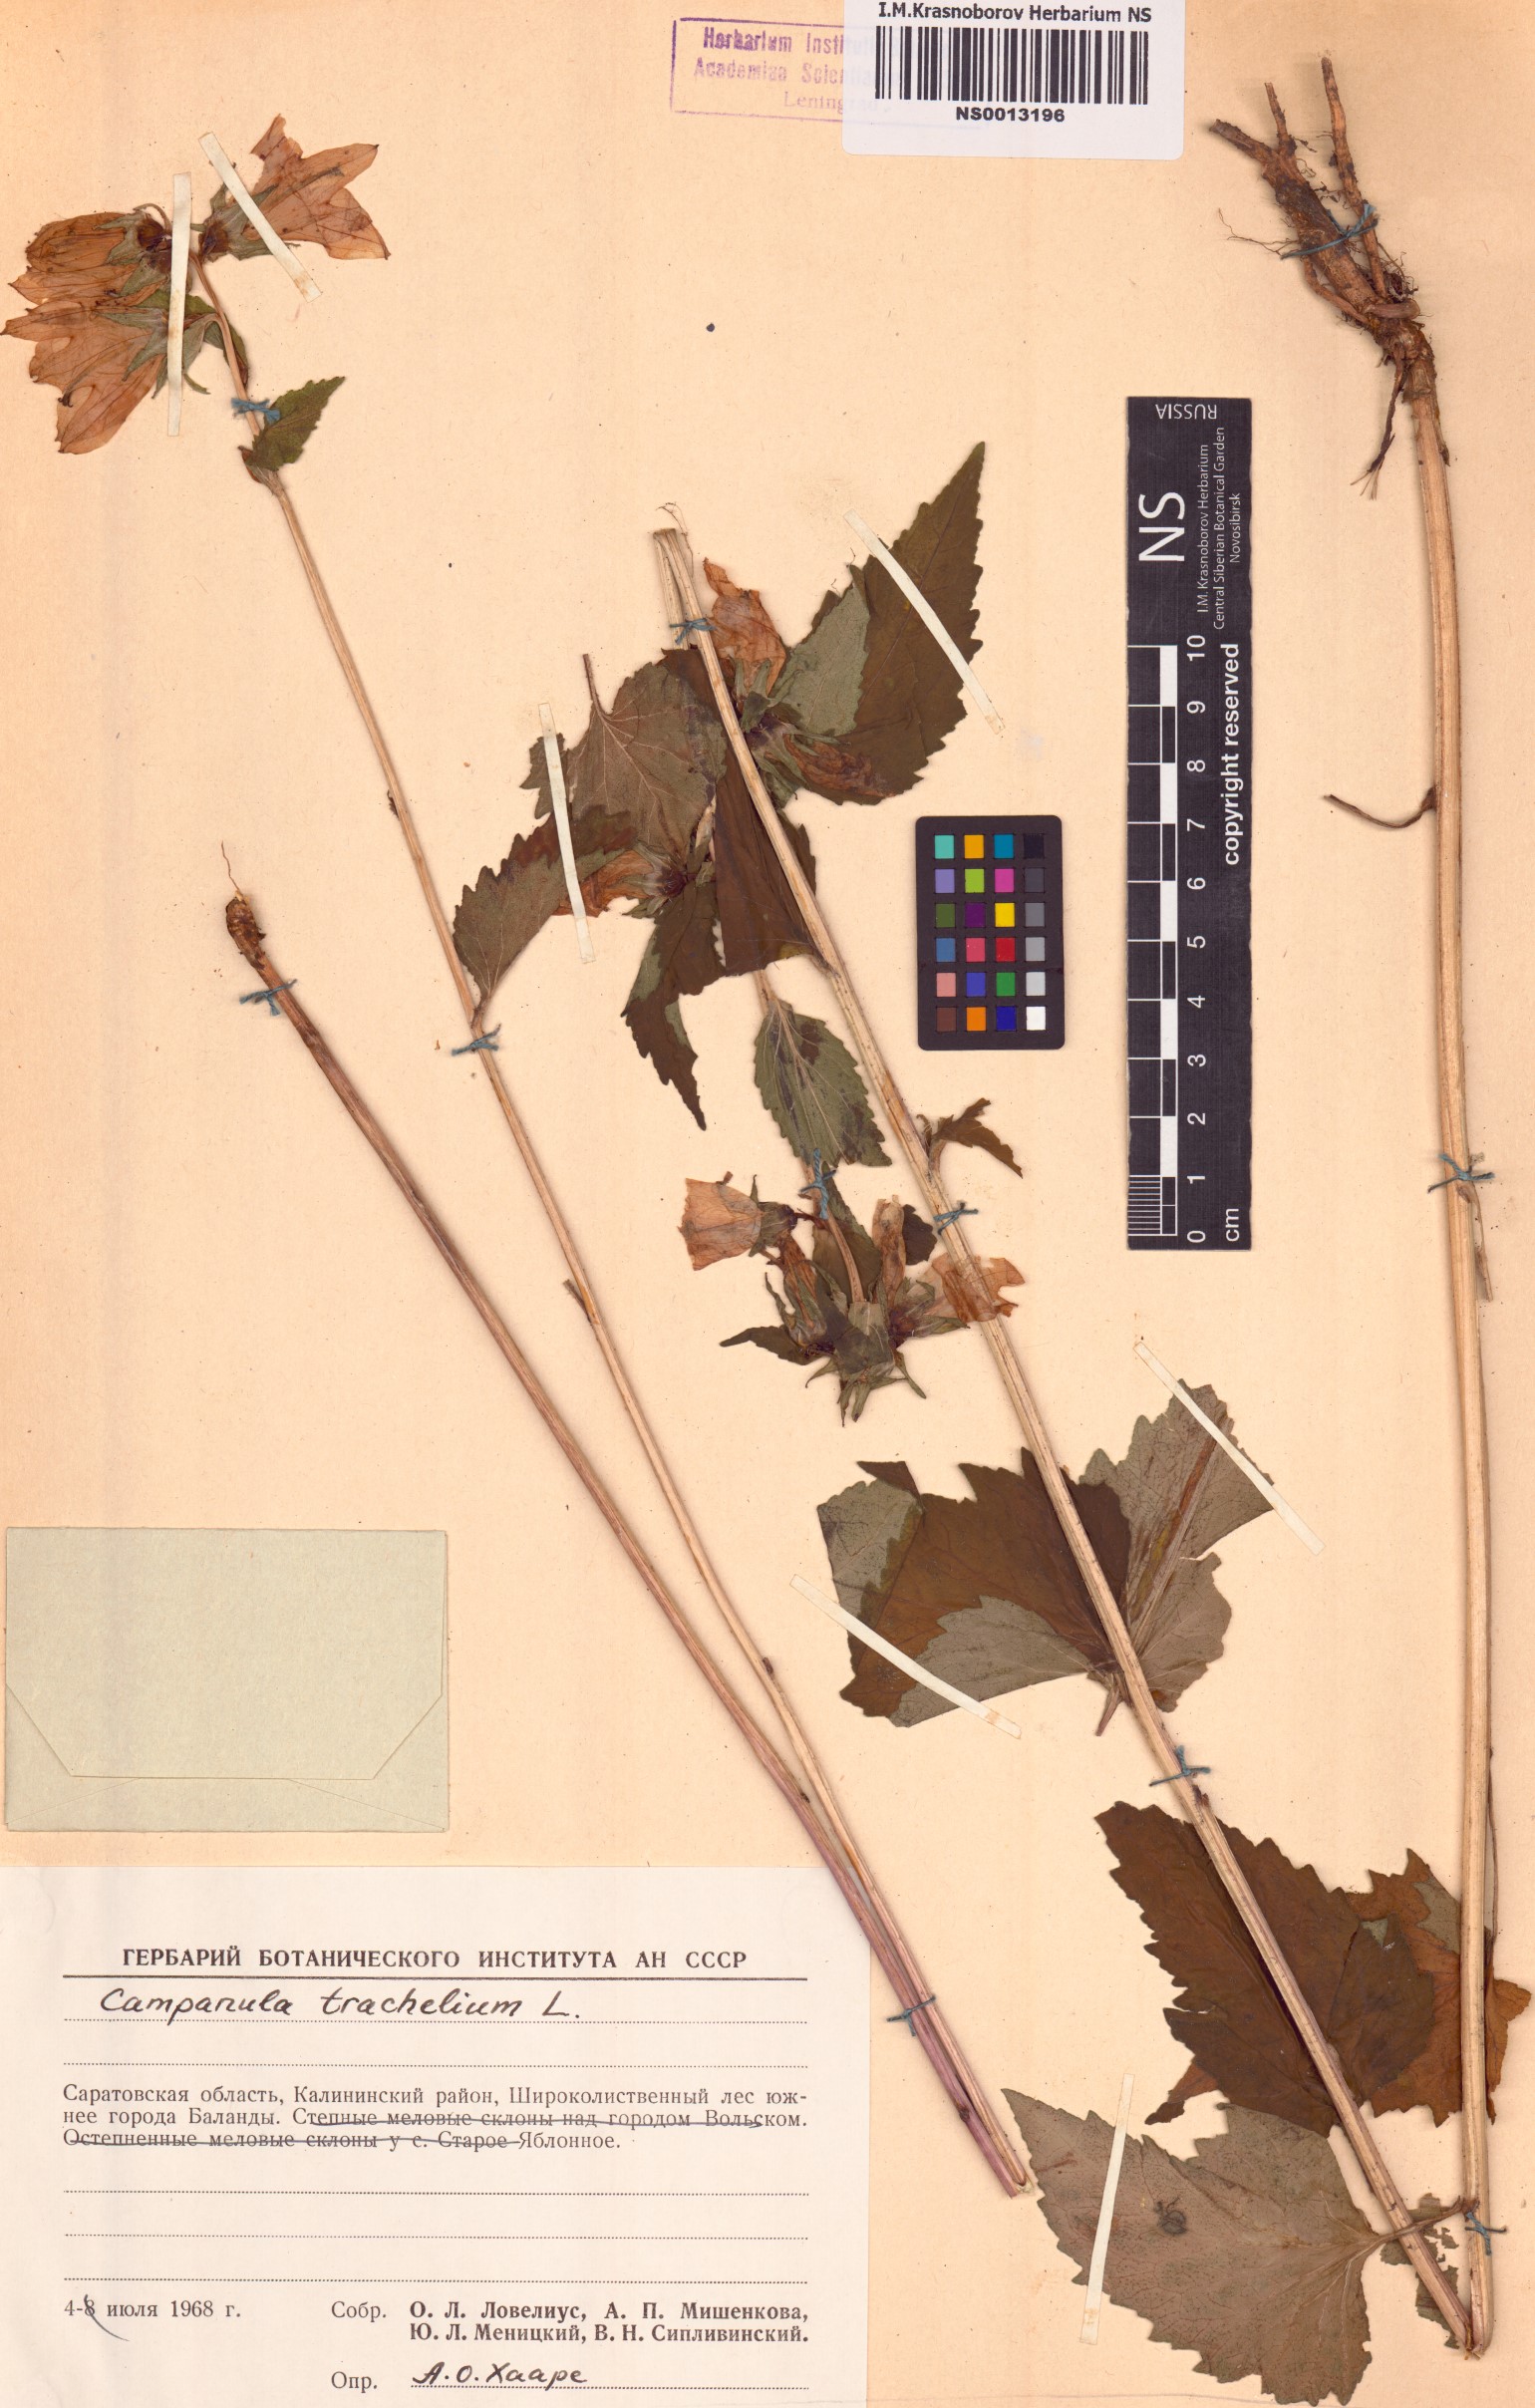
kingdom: Plantae
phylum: Tracheophyta
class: Magnoliopsida
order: Asterales
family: Campanulaceae
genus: Campanula
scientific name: Campanula trachelium
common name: Nettle-leaved bellflower
